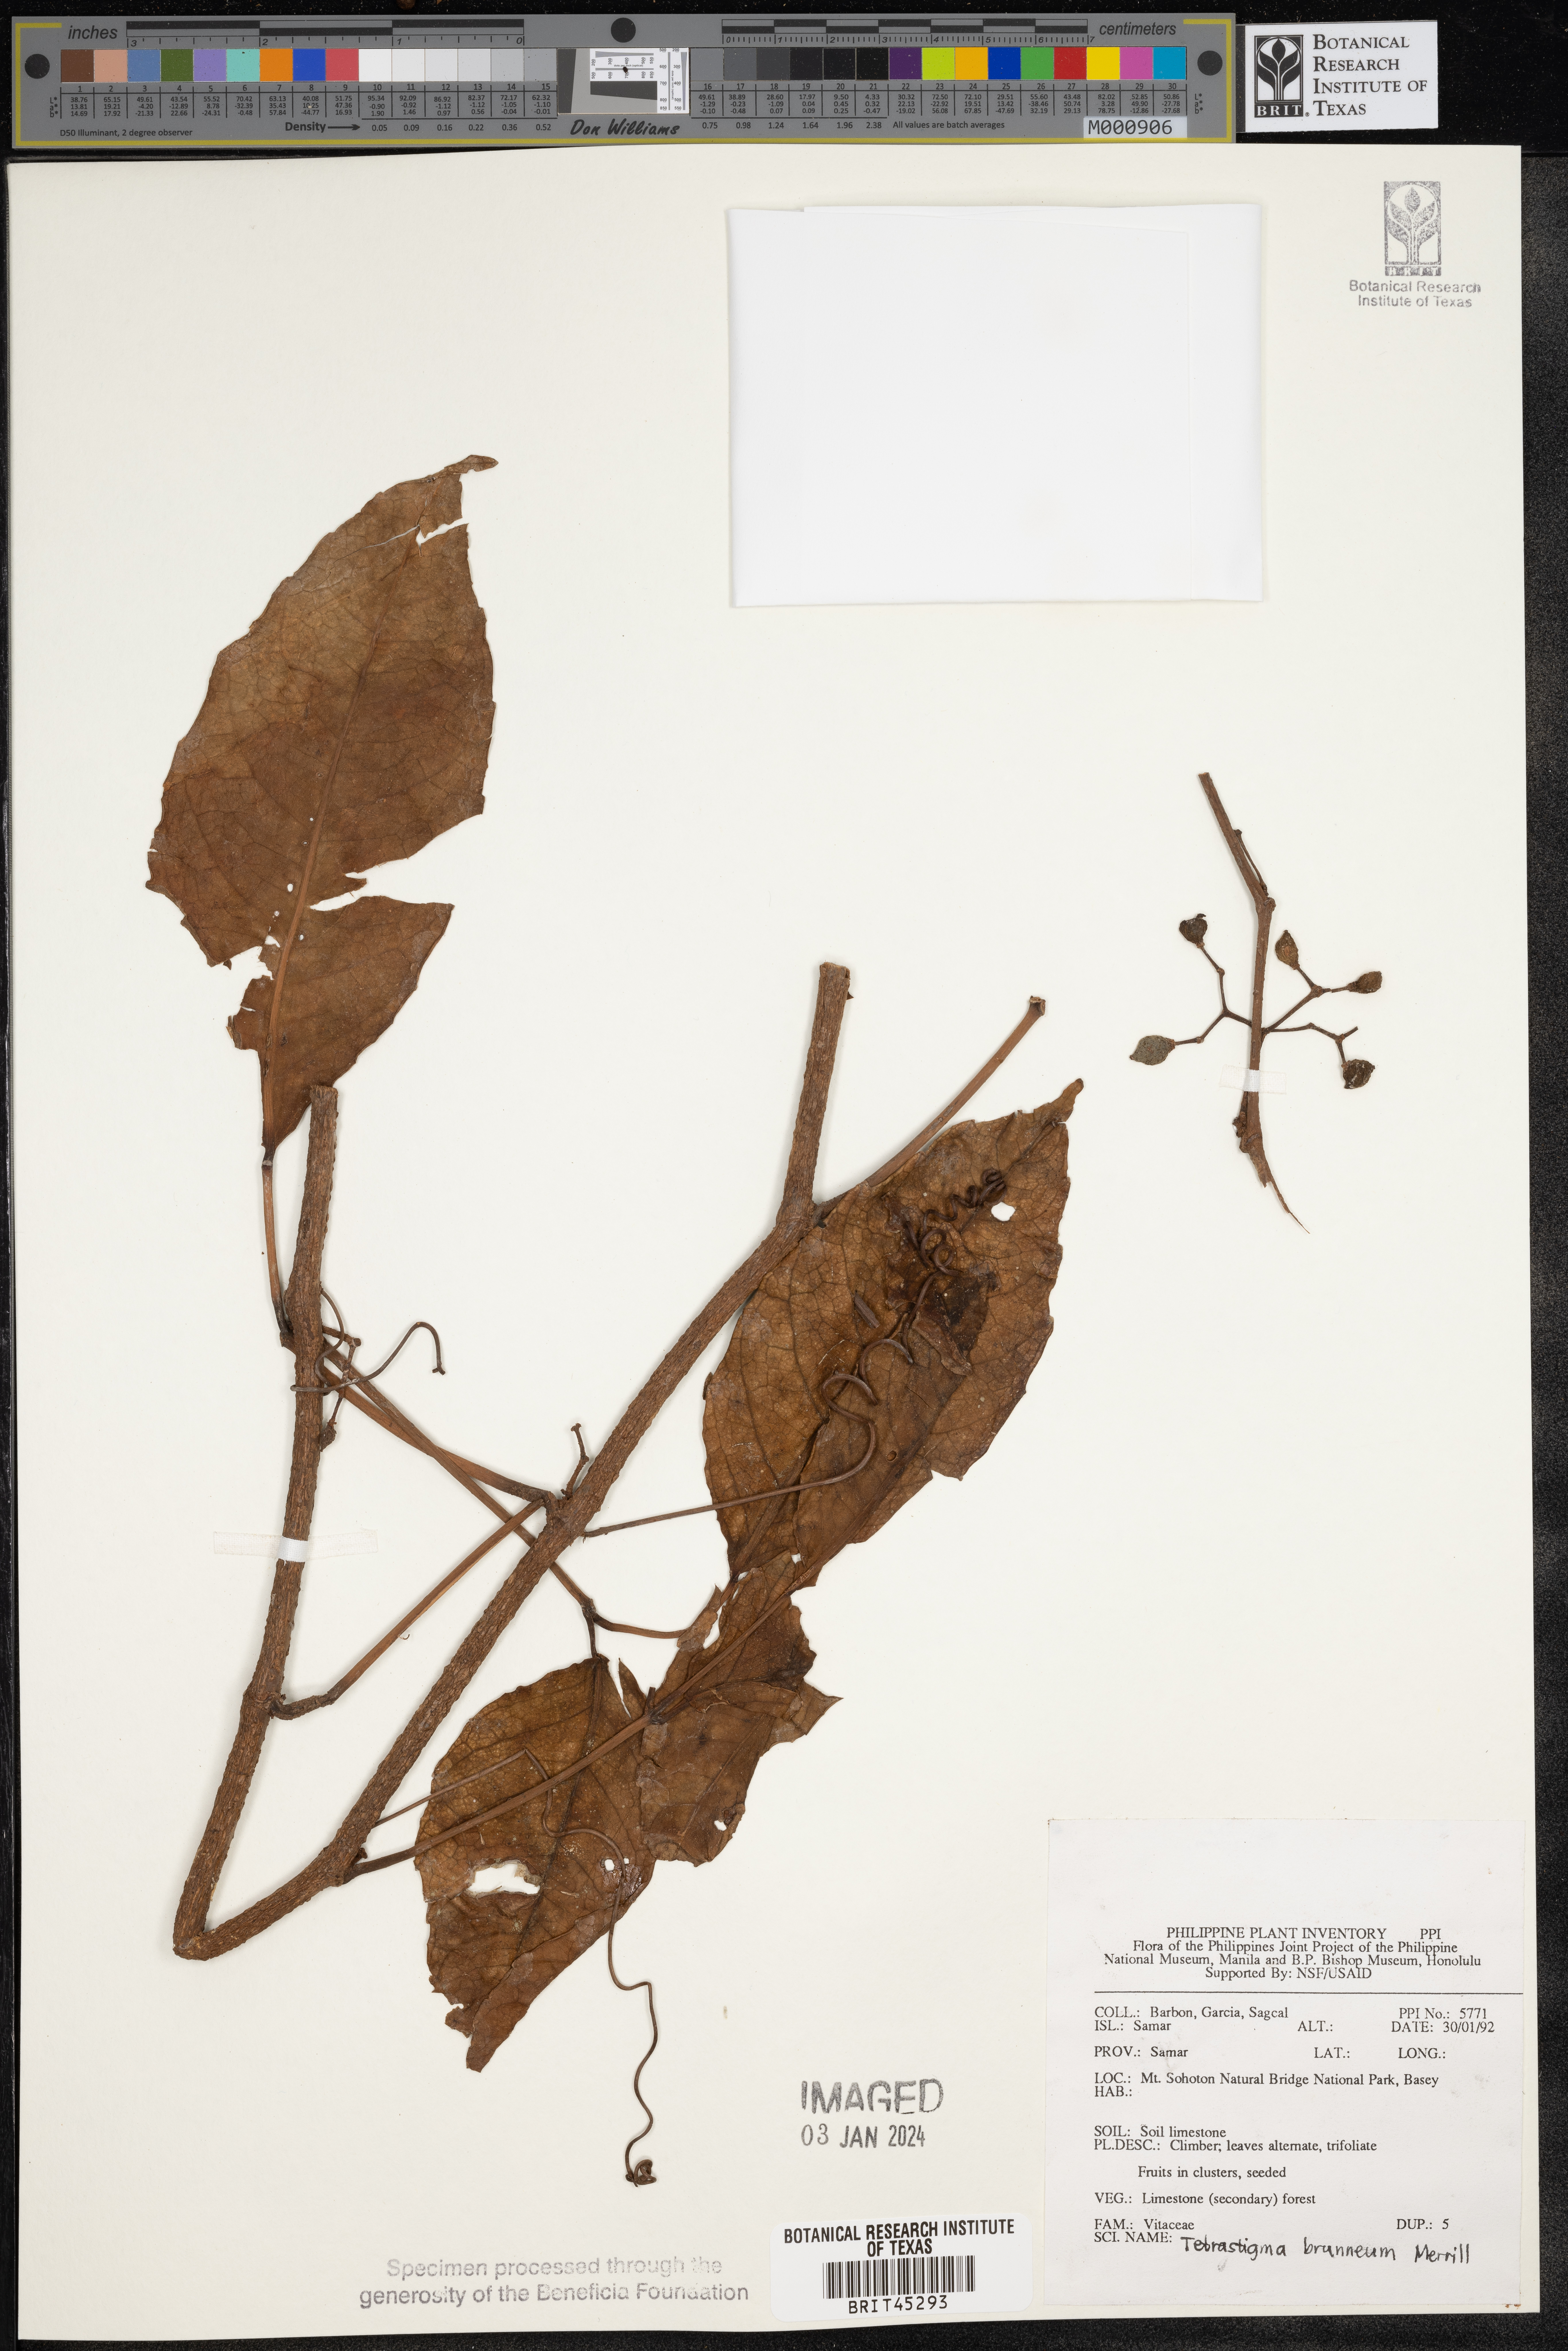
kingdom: Plantae
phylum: Tracheophyta
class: Magnoliopsida
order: Vitales
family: Vitaceae
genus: Tetrastigma
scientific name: Tetrastigma brunneum
